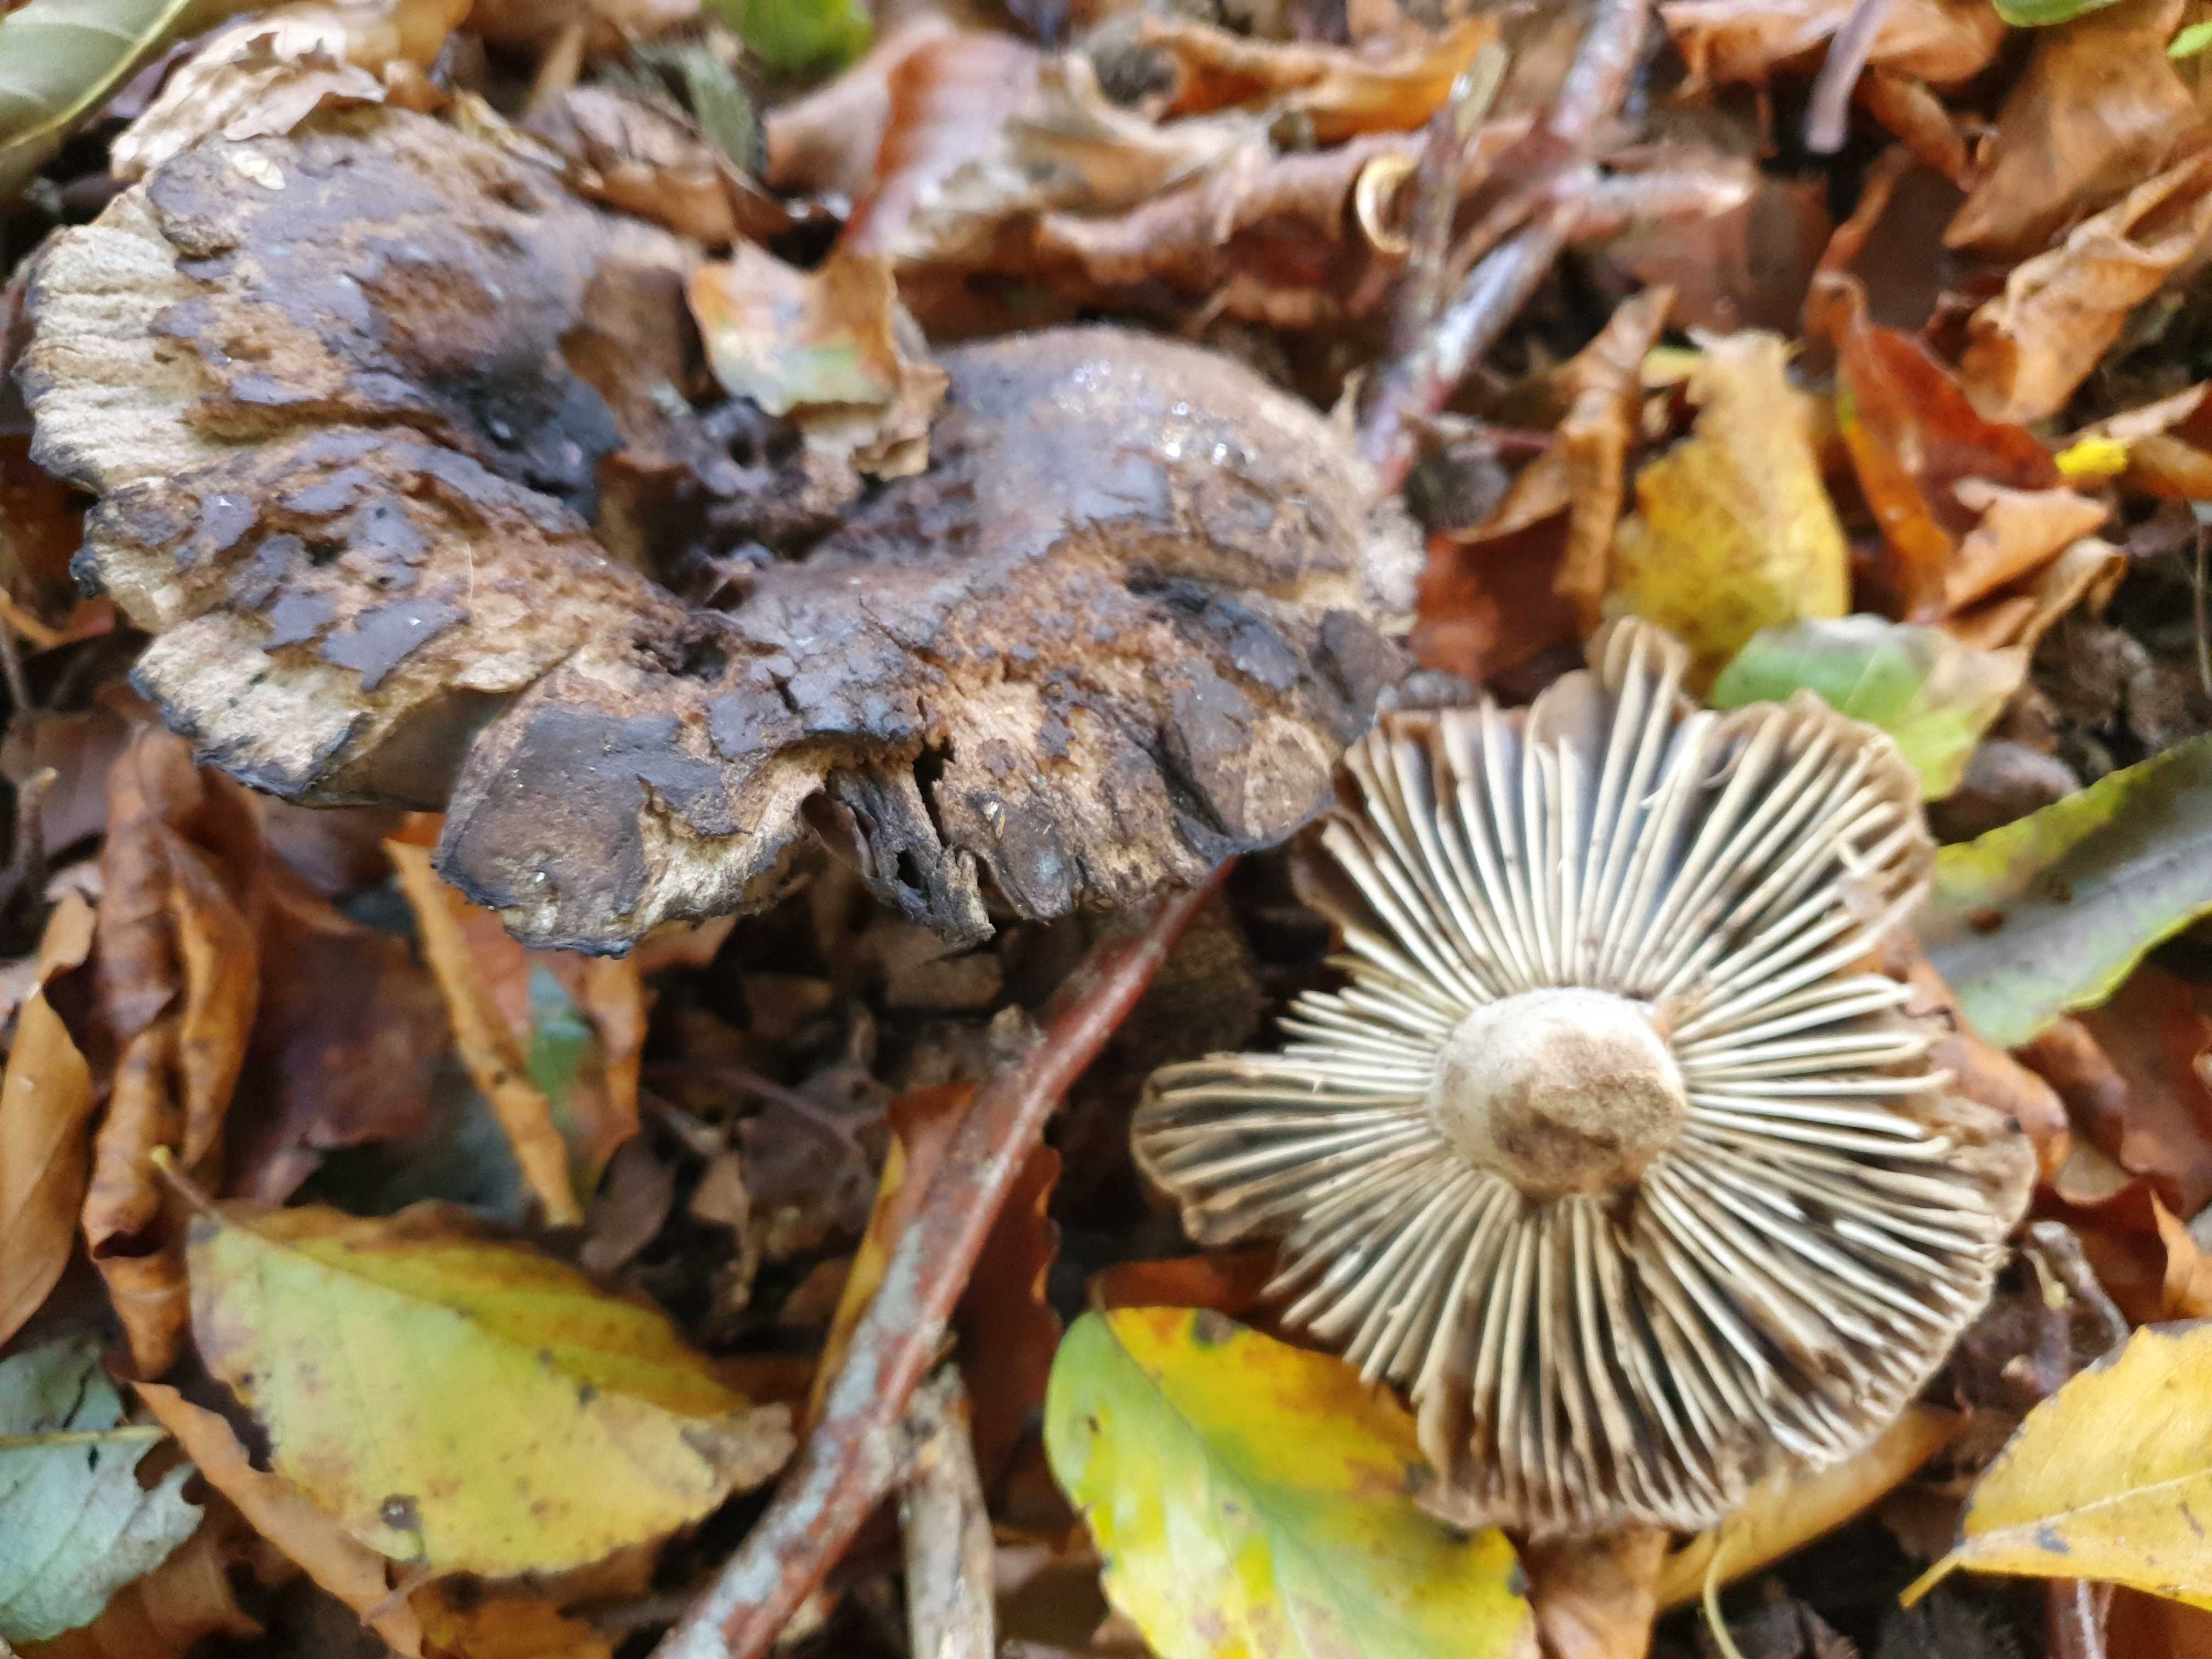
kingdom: Fungi
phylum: Basidiomycota
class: Agaricomycetes
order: Russulales
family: Russulaceae
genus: Russula
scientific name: Russula adusta
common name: sværtende skørhat
